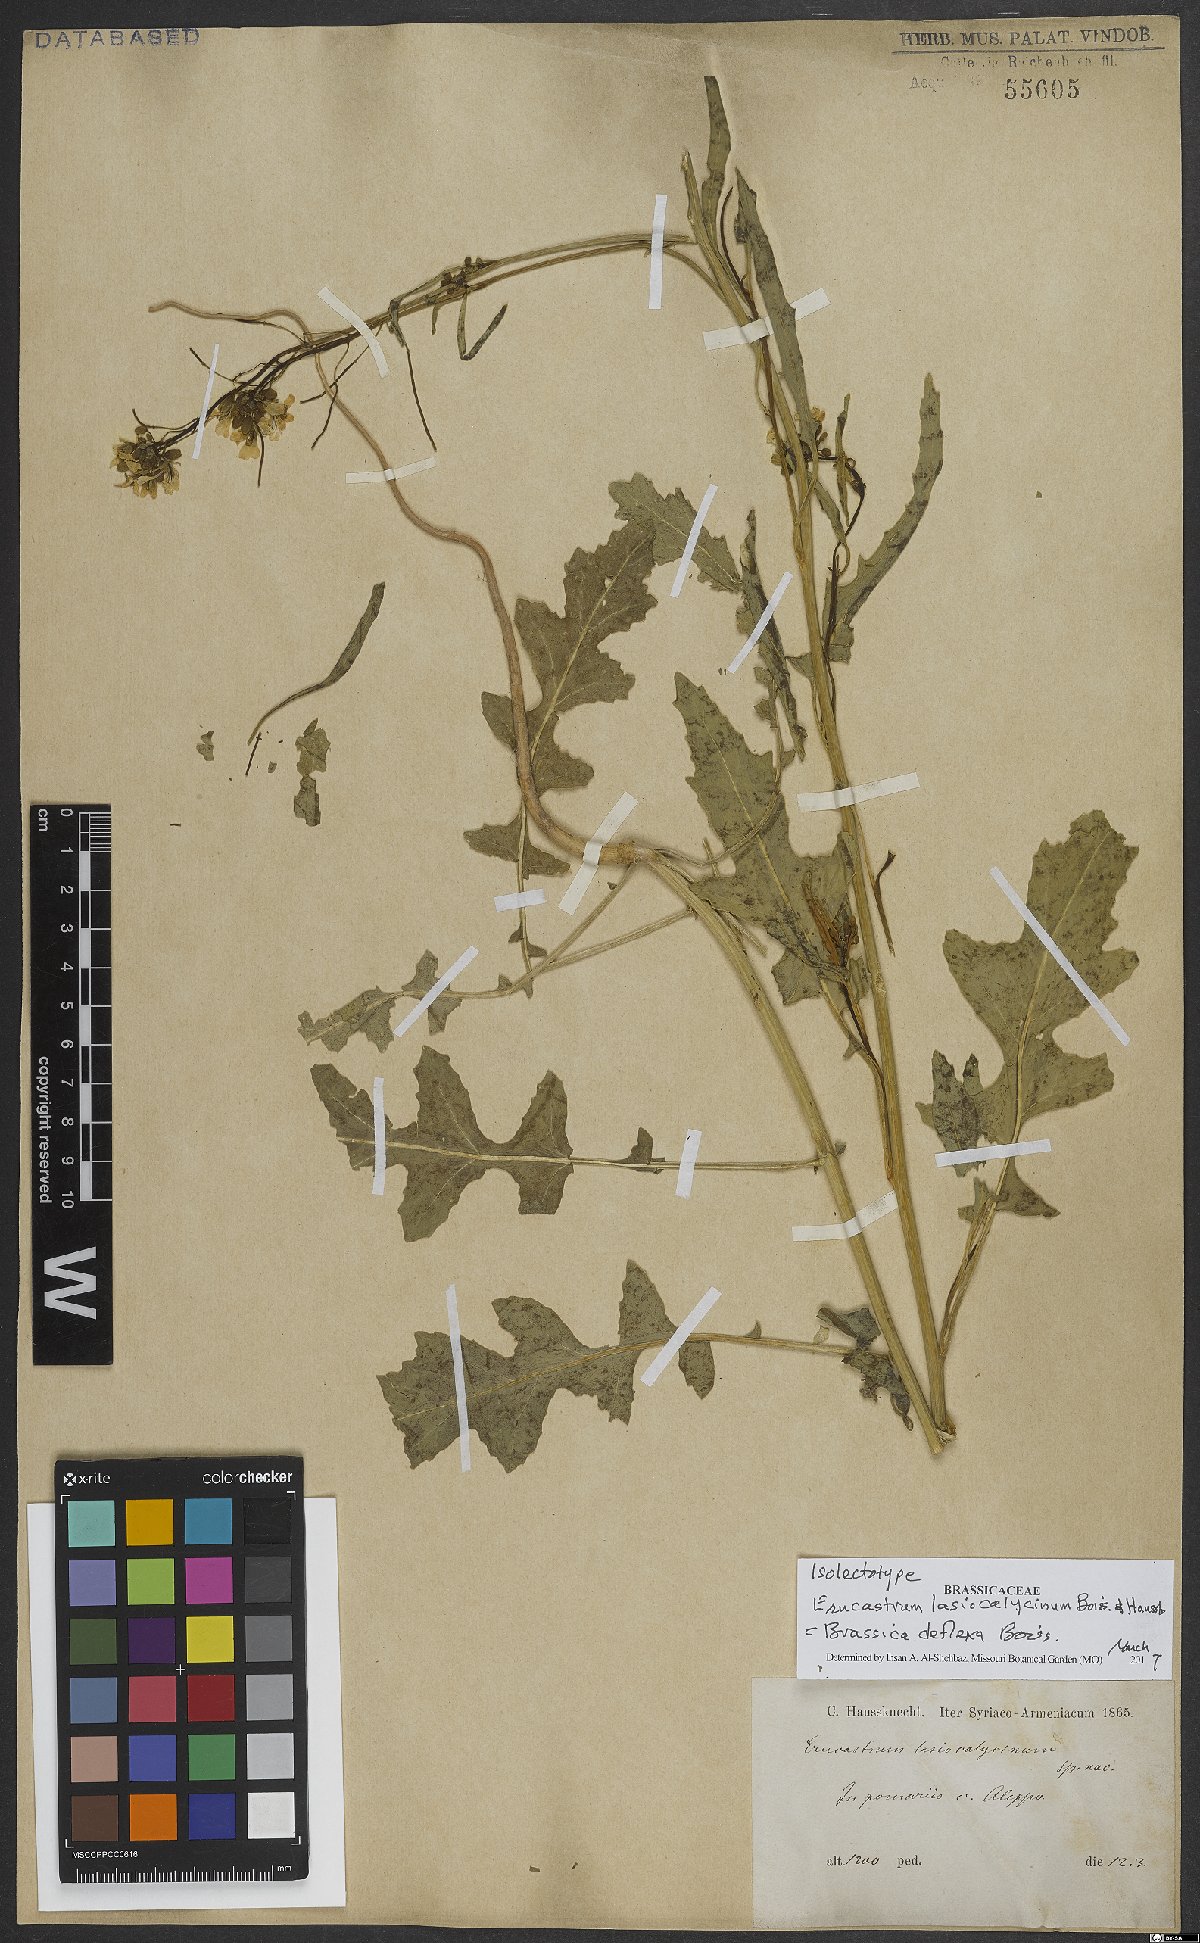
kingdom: Plantae
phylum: Tracheophyta
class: Magnoliopsida
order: Brassicales
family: Brassicaceae
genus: Brassica
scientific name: Brassica deflexa
